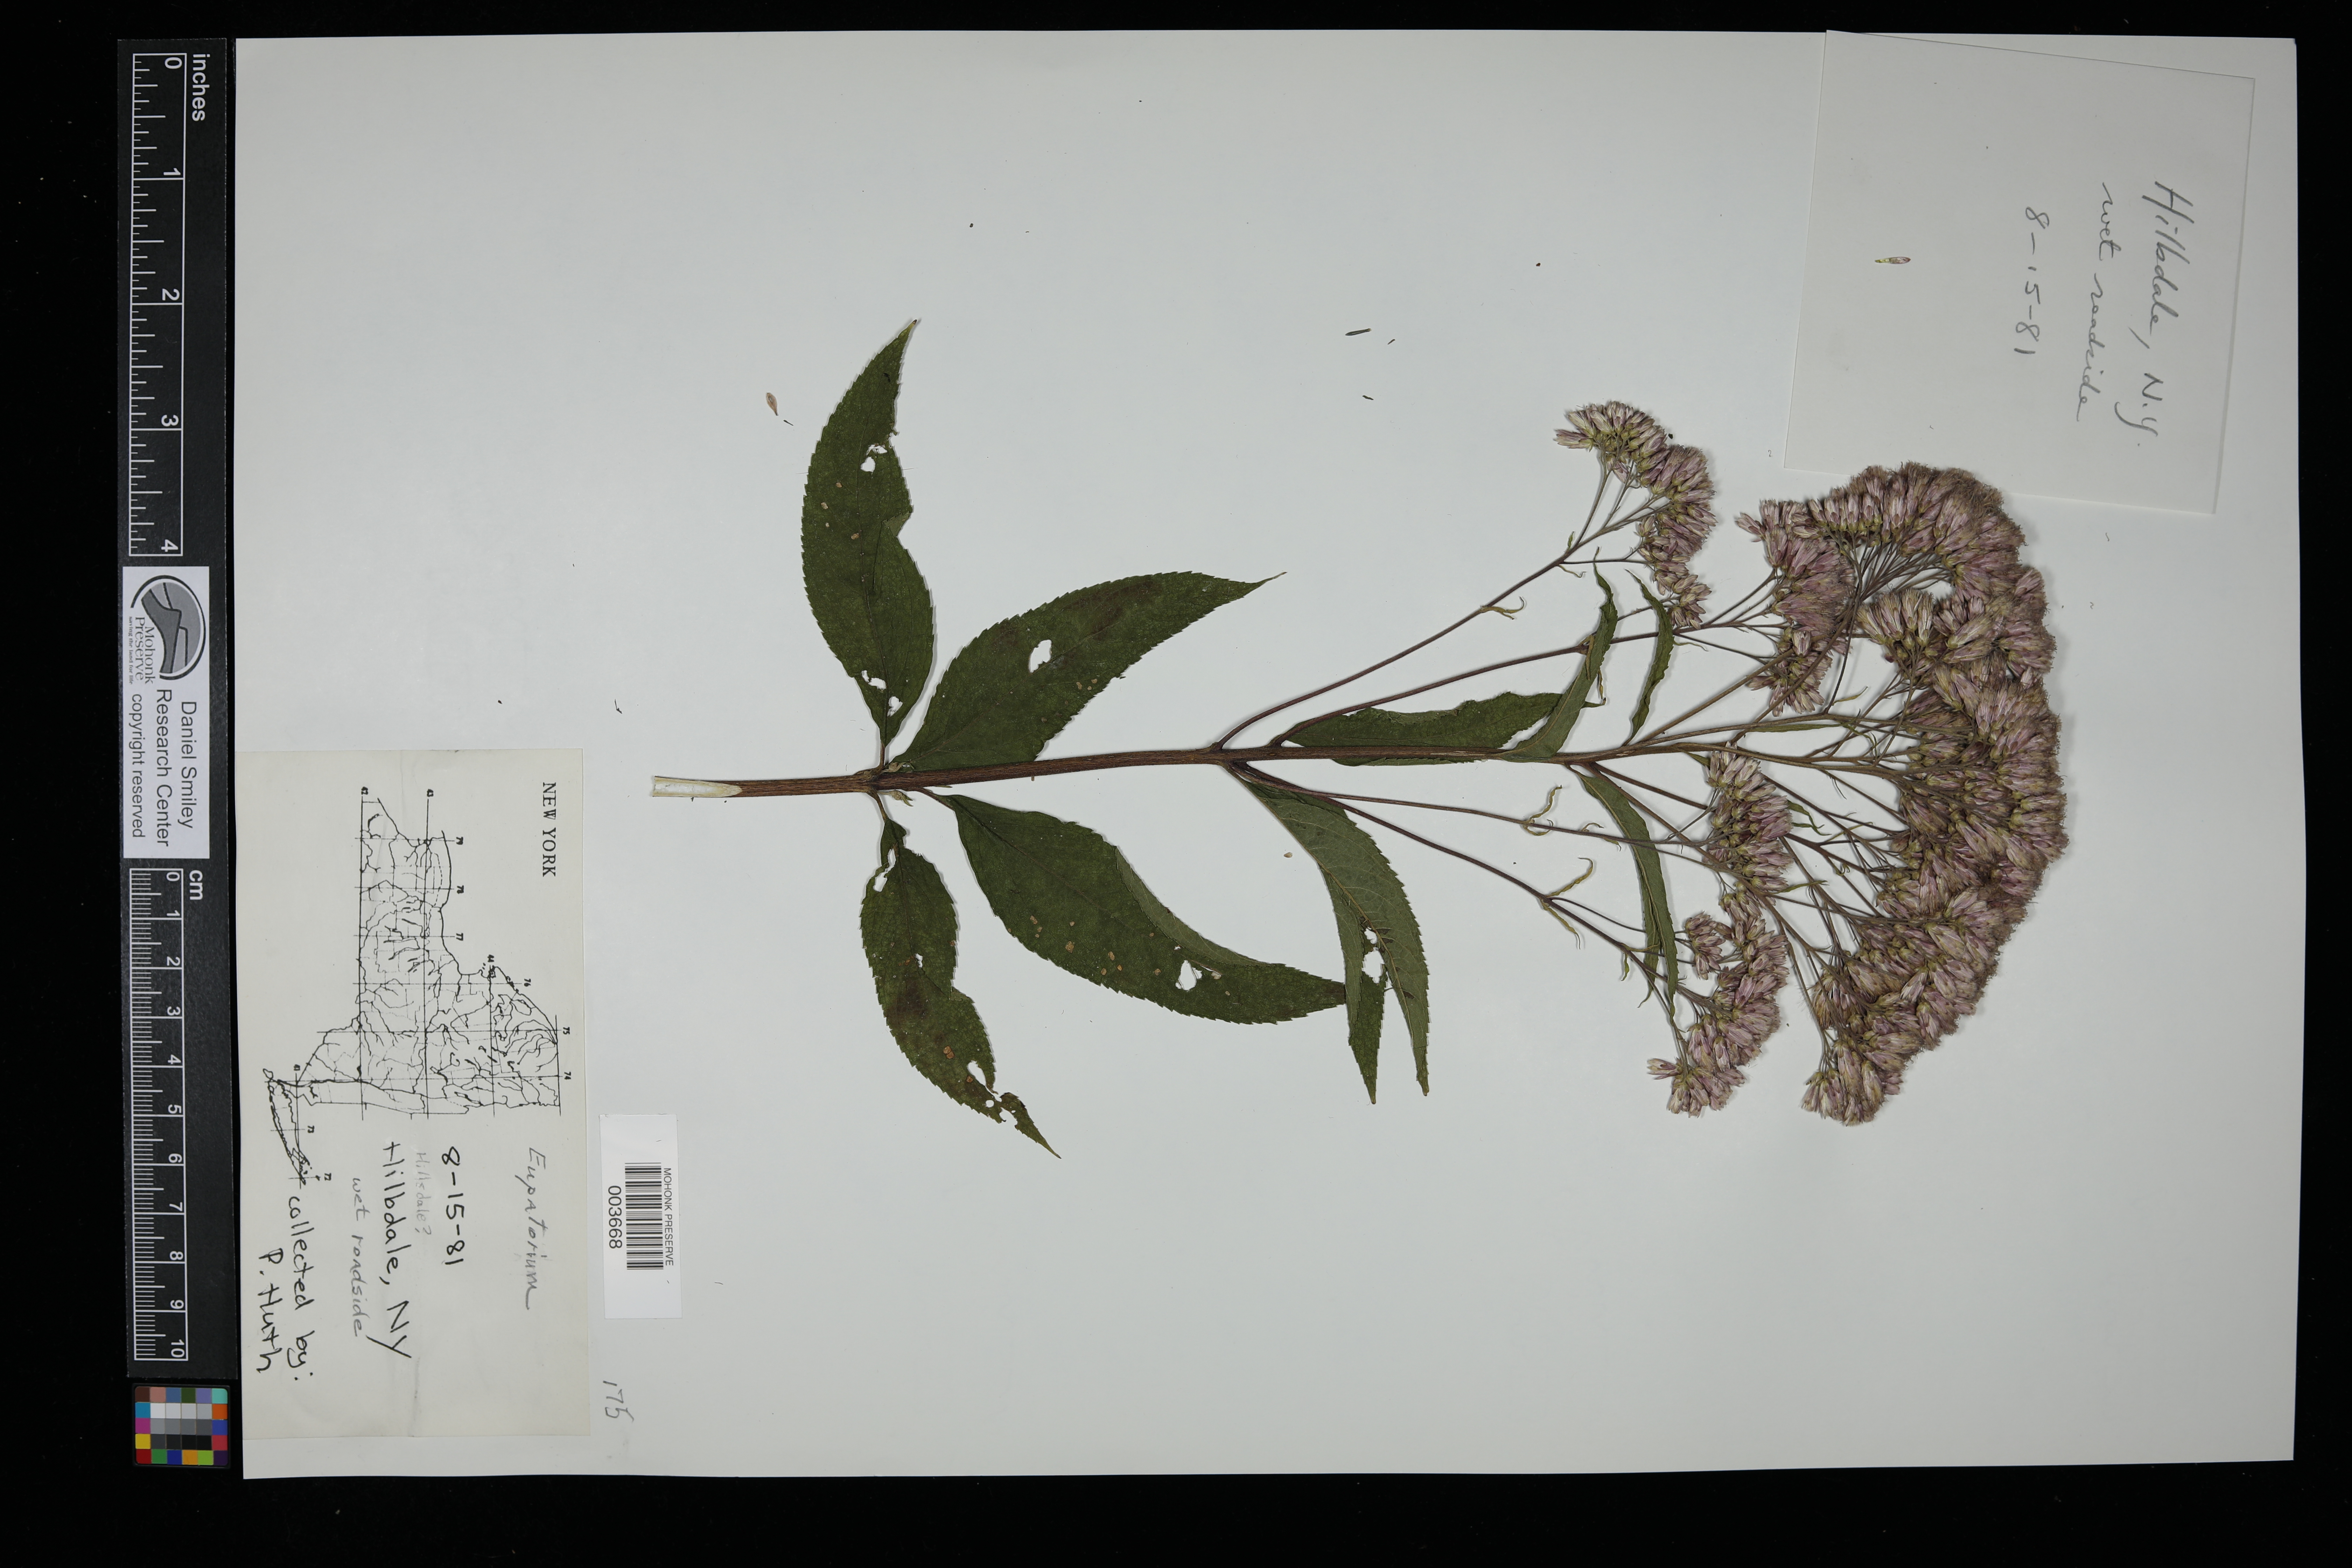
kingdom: Plantae
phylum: Tracheophyta
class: Magnoliopsida
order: Asterales
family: Asteraceae
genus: Eupatorium
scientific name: Eupatorium
